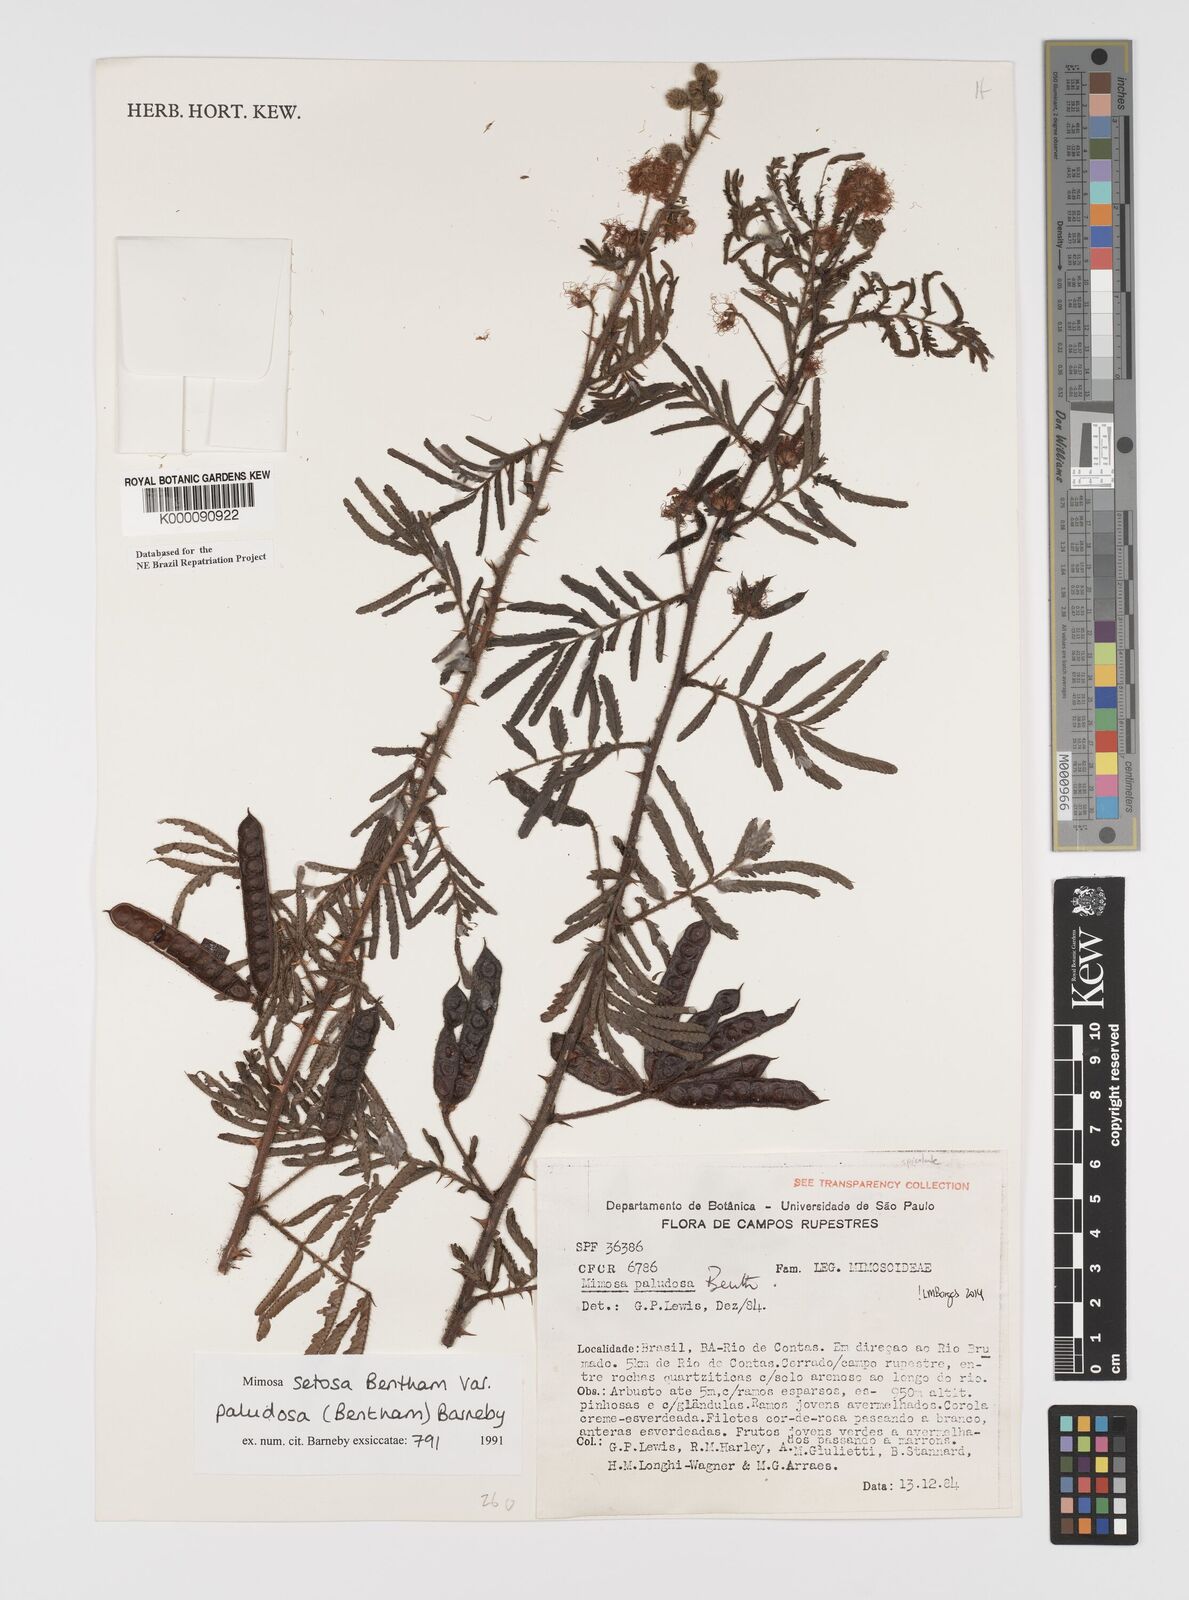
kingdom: Plantae
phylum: Tracheophyta
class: Magnoliopsida
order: Fabales
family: Fabaceae
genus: Mimosa
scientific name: Mimosa paludosa
